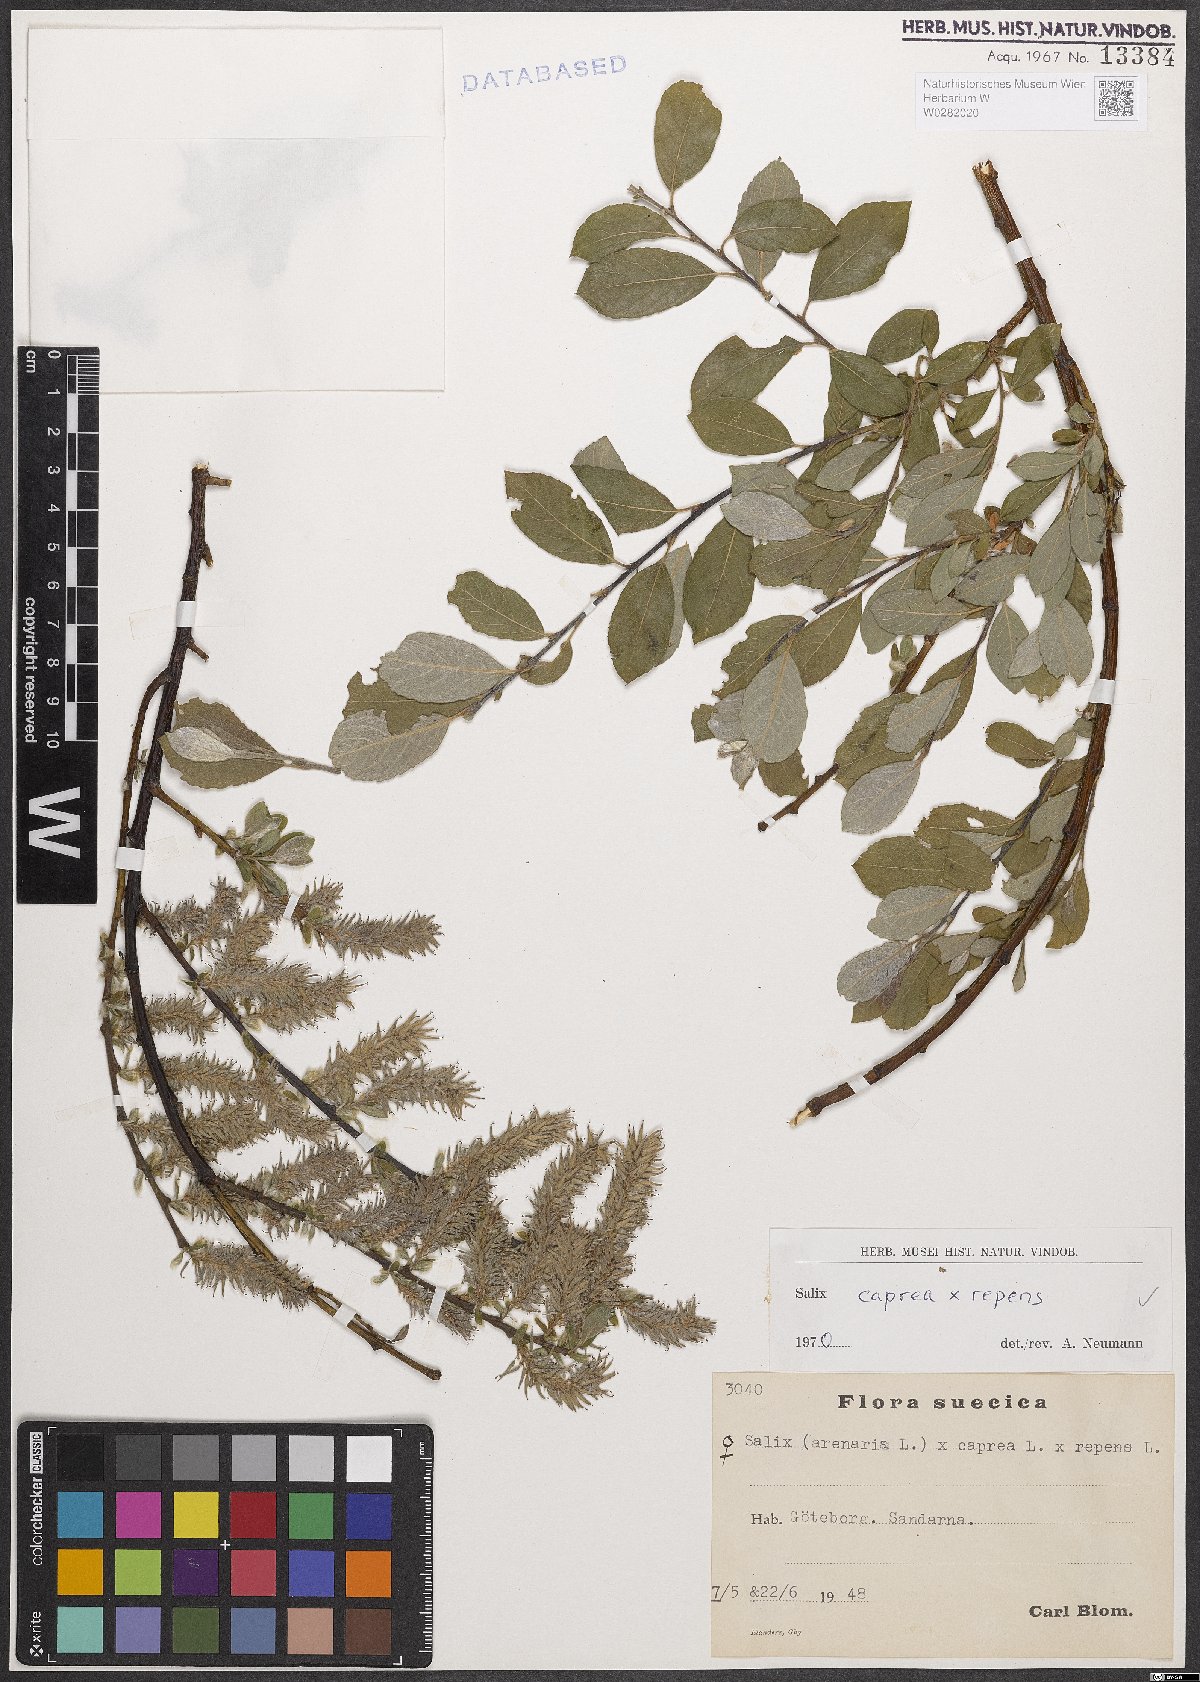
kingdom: Plantae
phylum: Tracheophyta
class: Magnoliopsida
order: Malpighiales
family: Salicaceae
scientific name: Salicaceae
